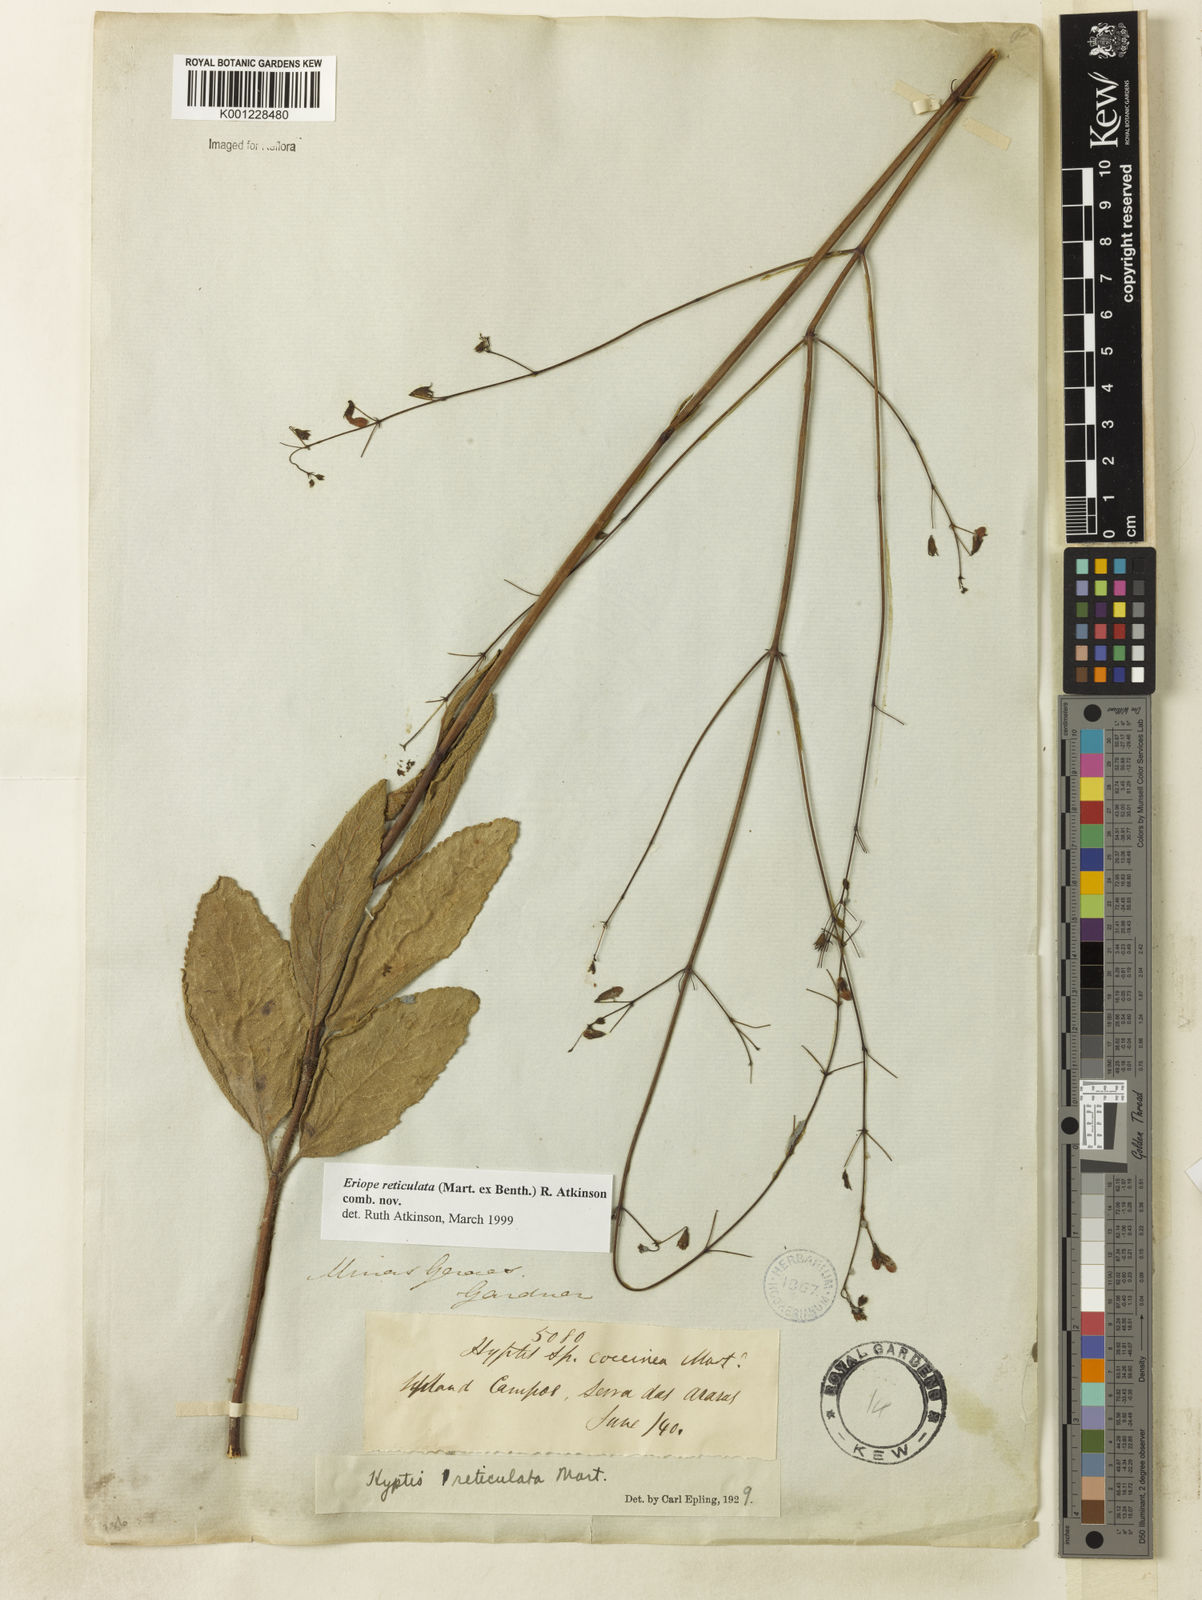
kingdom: Plantae
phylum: Tracheophyta
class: Magnoliopsida
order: Lamiales
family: Lamiaceae
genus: Hypenia
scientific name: Hypenia reticulata
